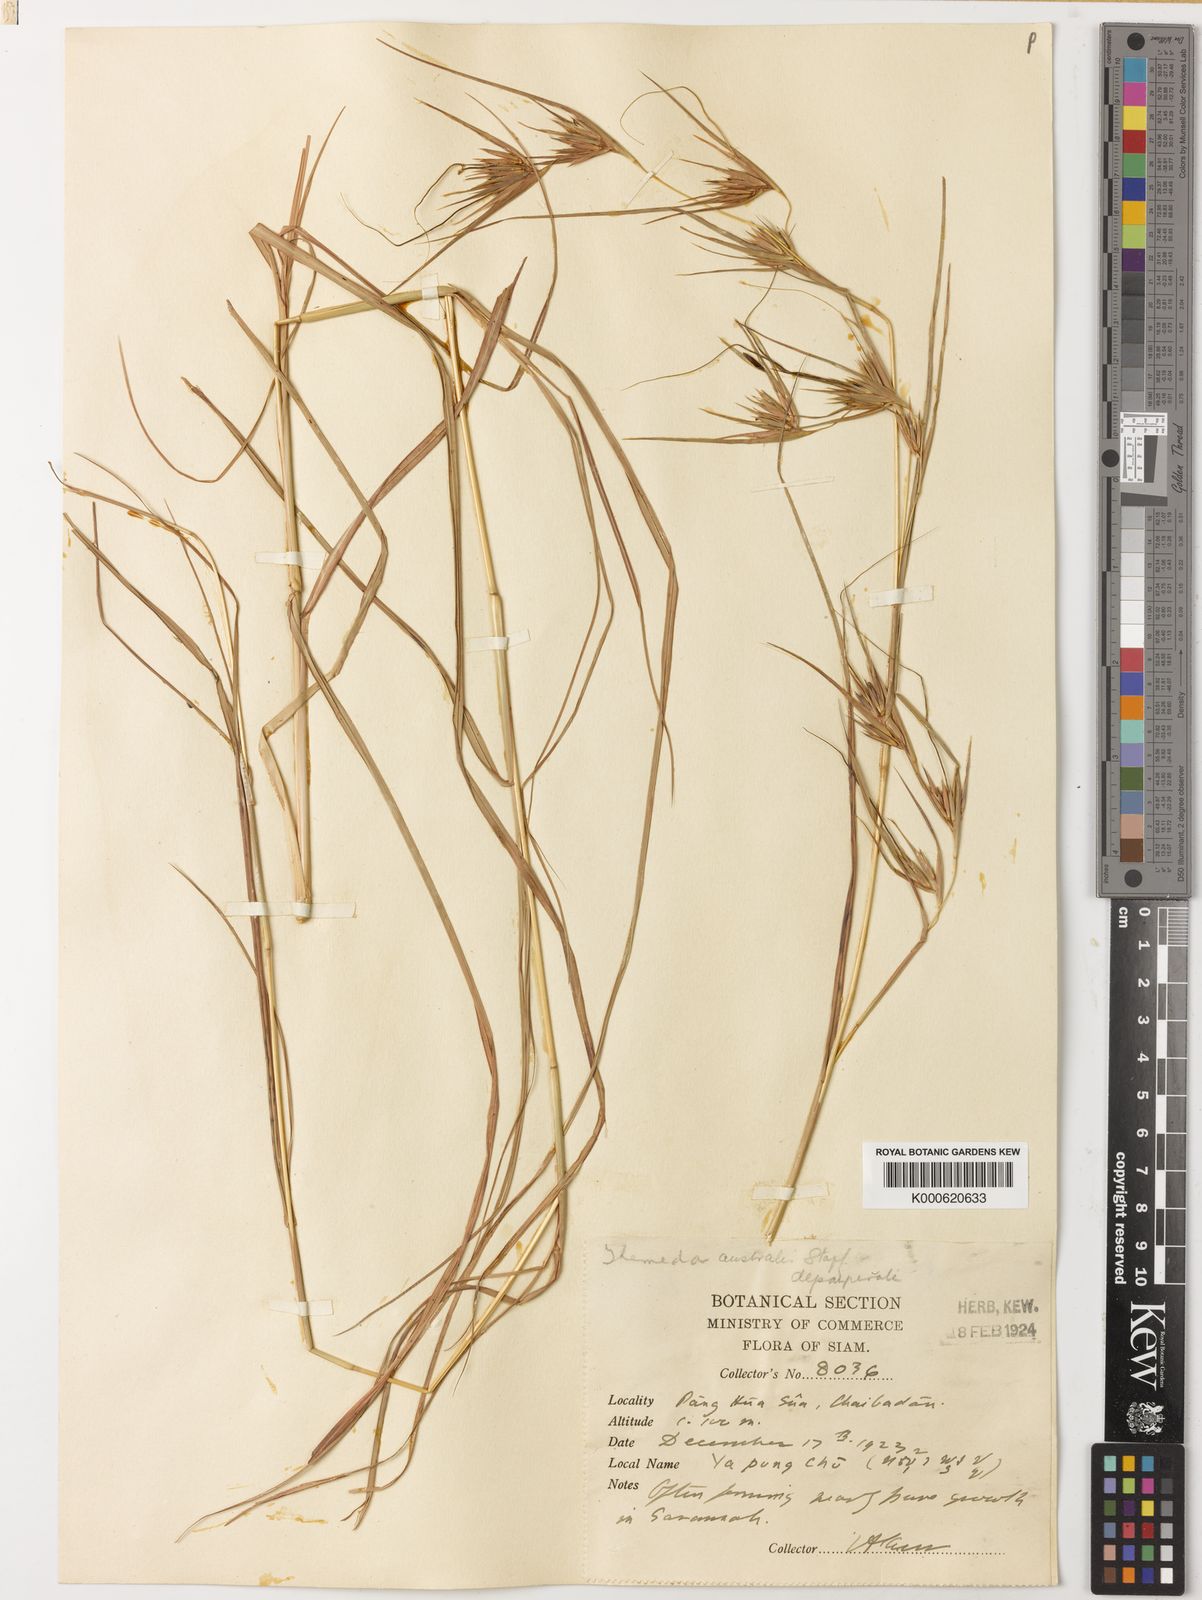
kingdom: Plantae
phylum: Tracheophyta
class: Liliopsida
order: Poales
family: Poaceae
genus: Themeda
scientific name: Themeda triandra
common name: Kangaroo grass
